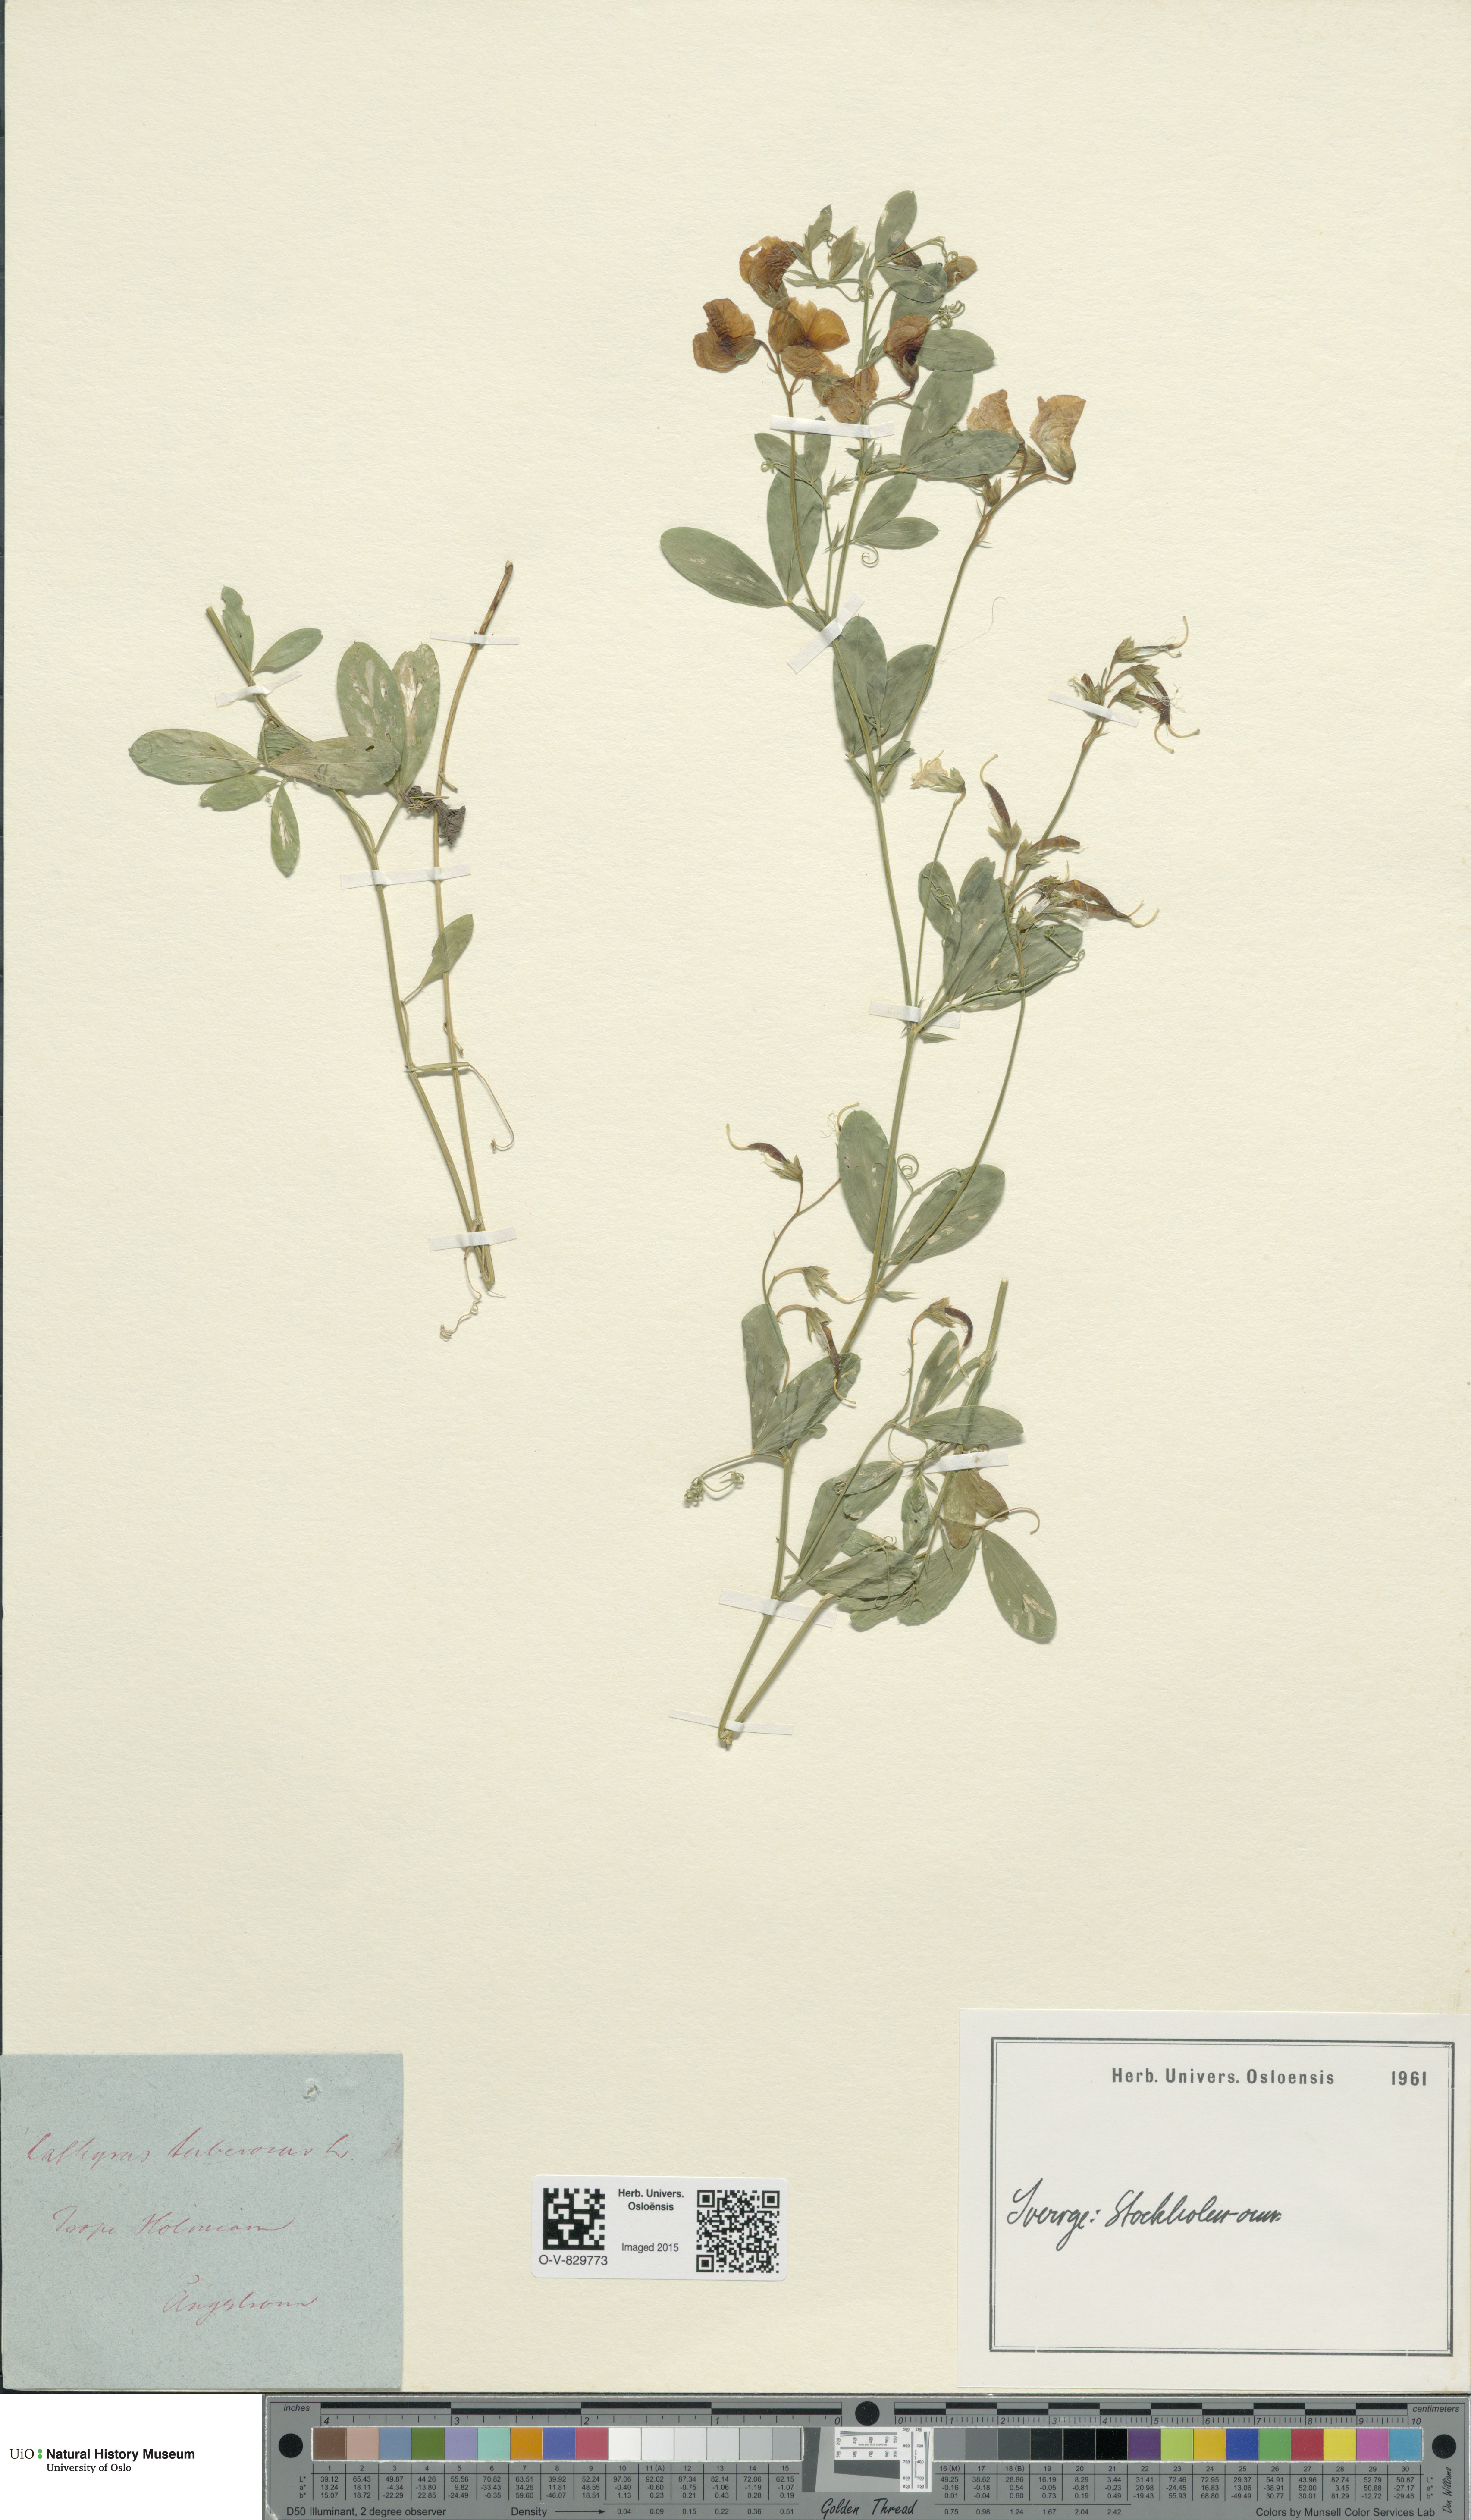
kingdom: Plantae
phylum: Tracheophyta
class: Magnoliopsida
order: Fabales
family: Fabaceae
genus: Lathyrus
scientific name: Lathyrus tuberosus
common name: Tuberous pea
